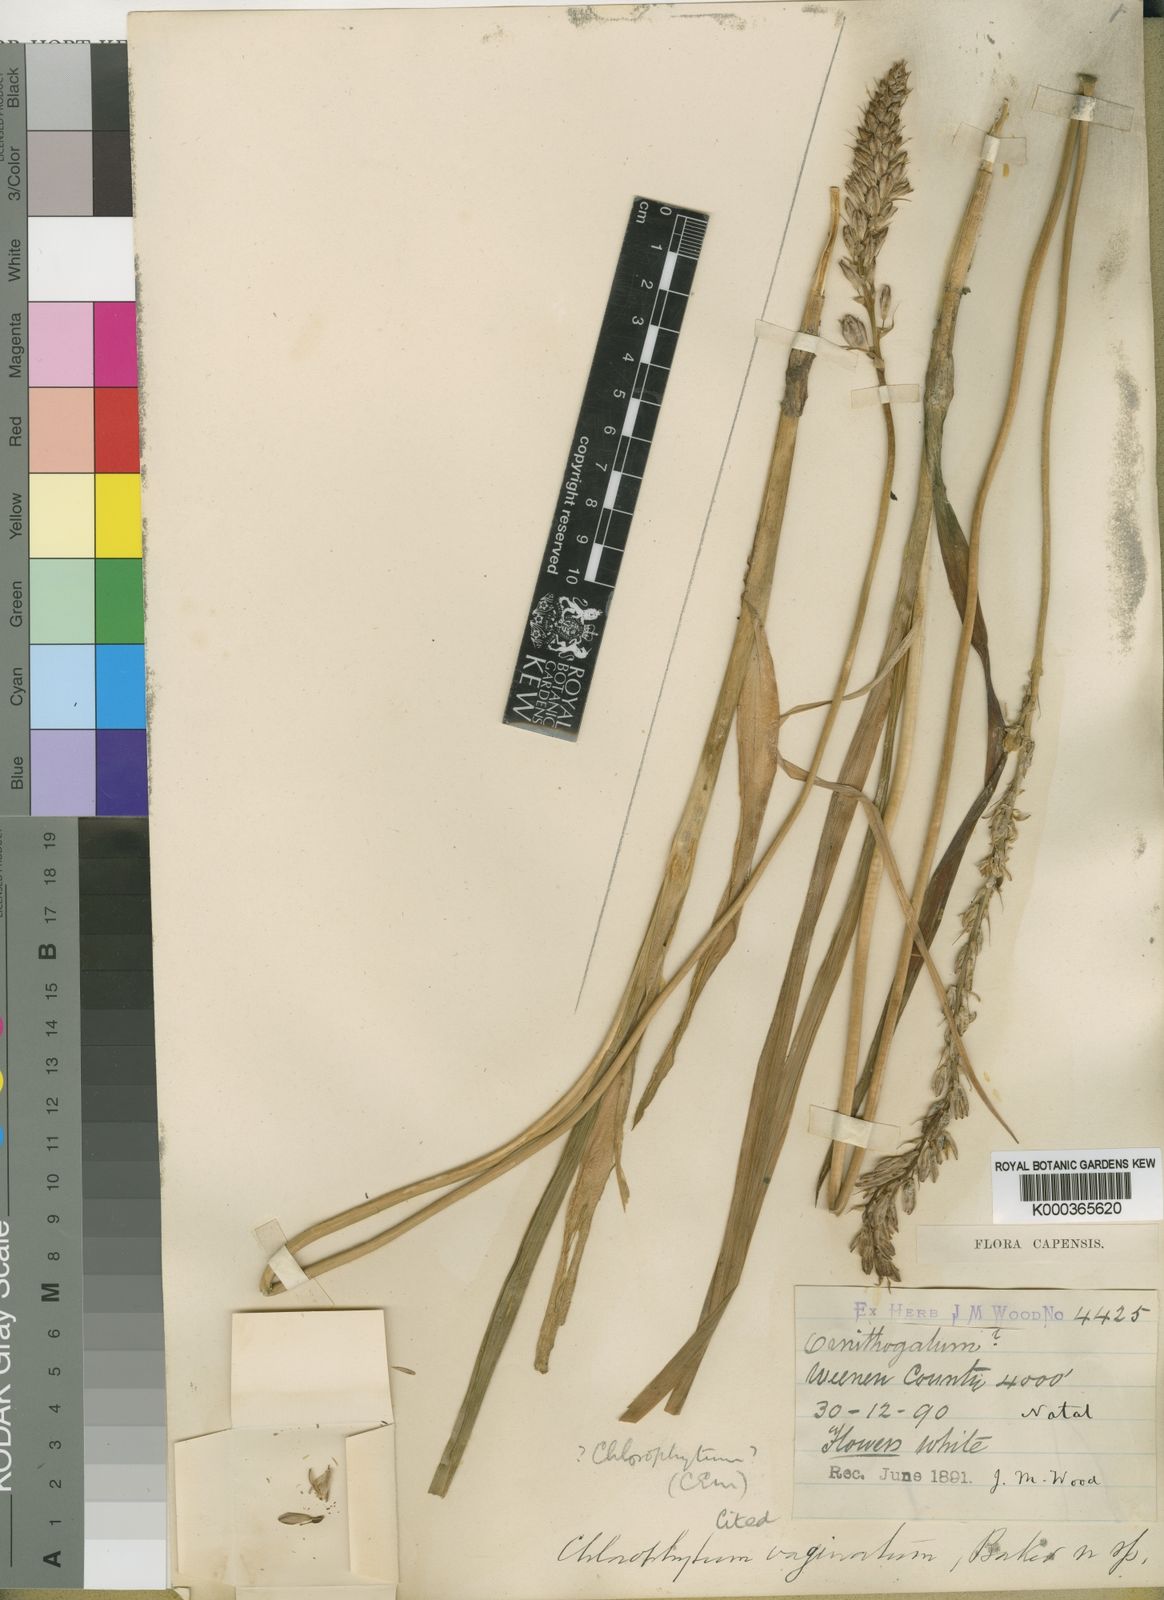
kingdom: Plantae
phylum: Tracheophyta
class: Liliopsida
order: Asparagales
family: Asparagaceae
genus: Ornithogalum
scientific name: Ornithogalum graminifolium
